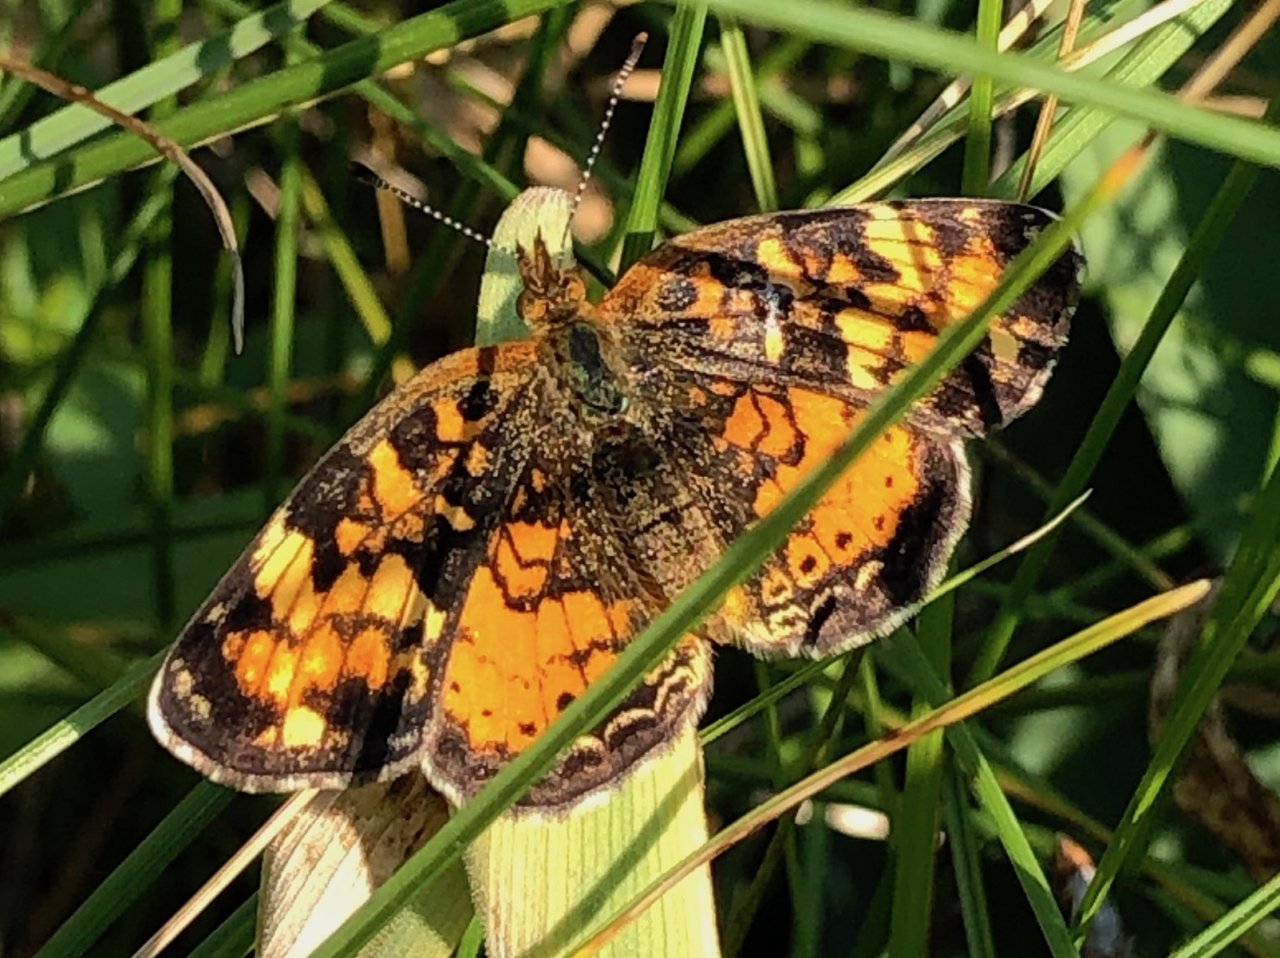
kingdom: Animalia
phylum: Arthropoda
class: Insecta
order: Lepidoptera
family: Nymphalidae
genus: Phyciodes
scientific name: Phyciodes tharos
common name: Northern Crescent
